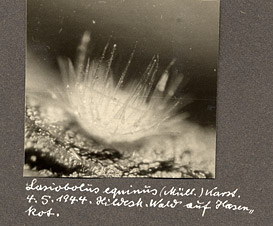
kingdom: Fungi
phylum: Ascomycota
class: Pezizomycetes
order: Pezizales
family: Ascodesmidaceae
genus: Lasiobolus
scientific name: Lasiobolus papillatus
